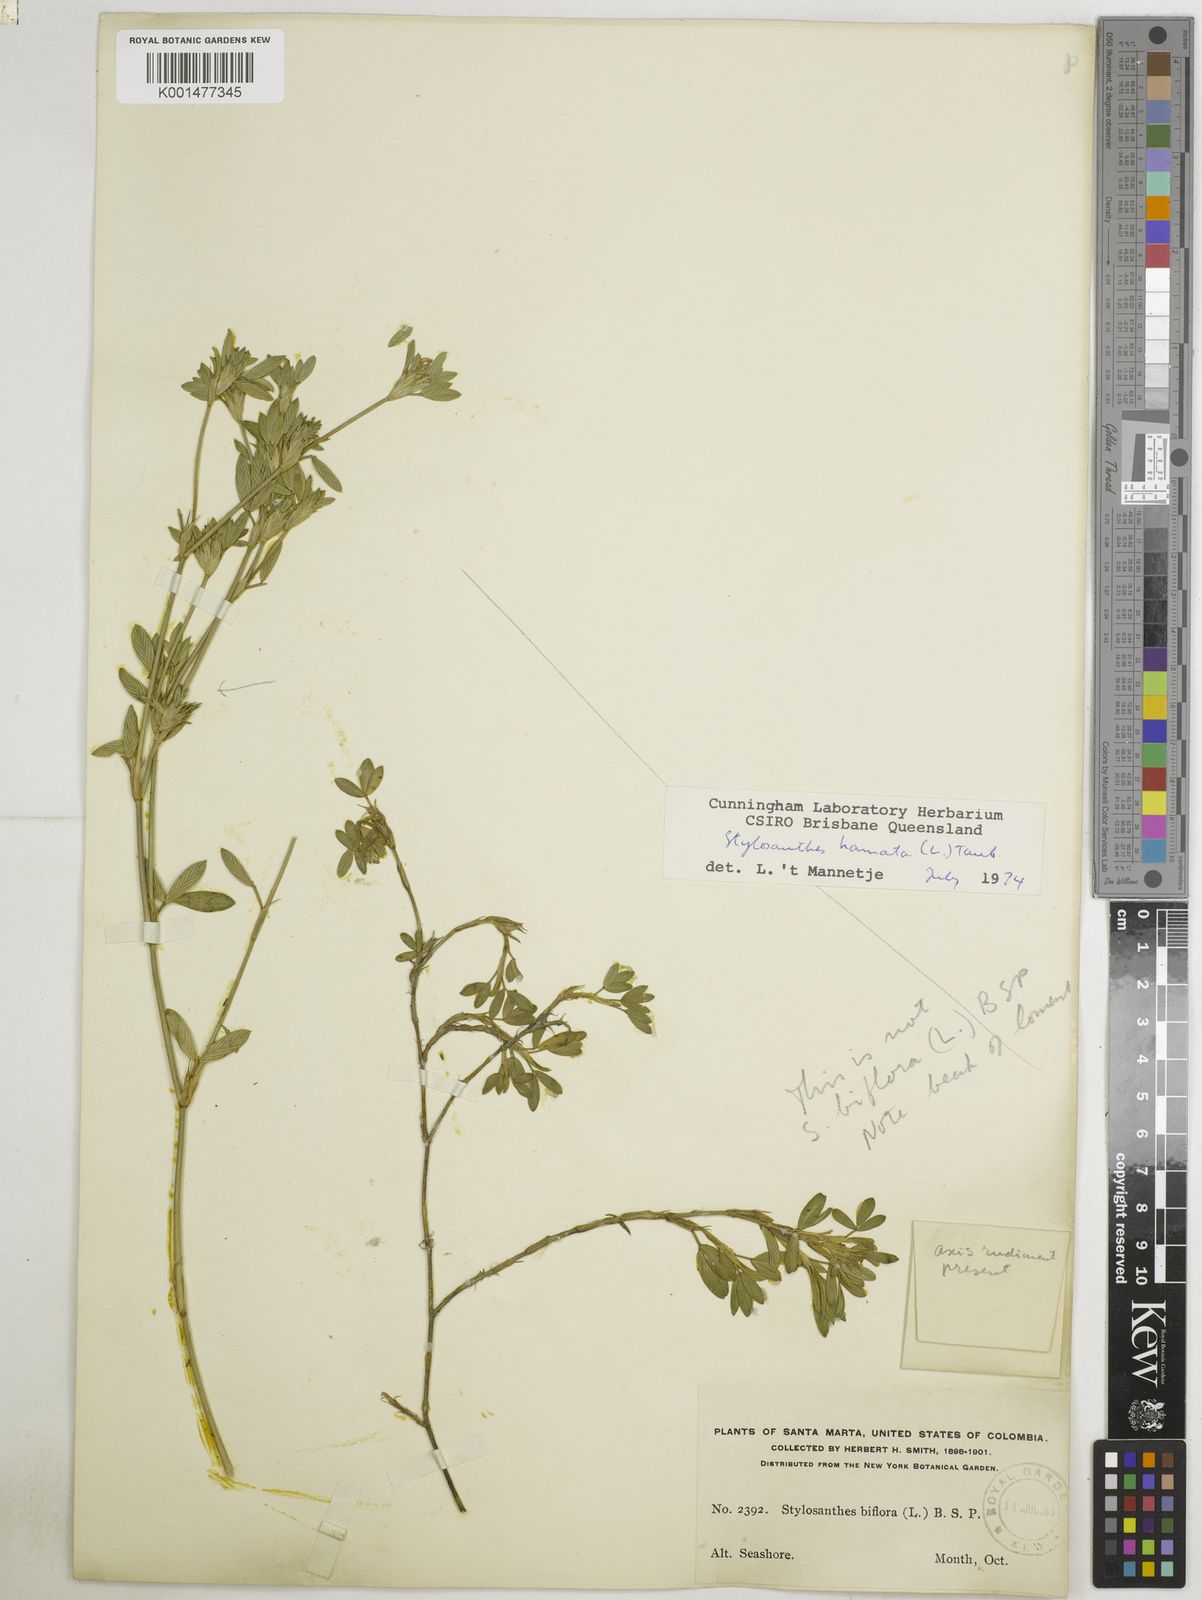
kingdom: Plantae
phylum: Tracheophyta
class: Magnoliopsida
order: Fabales
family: Fabaceae
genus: Stylosanthes
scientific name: Stylosanthes hamata
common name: Cheesytoes
